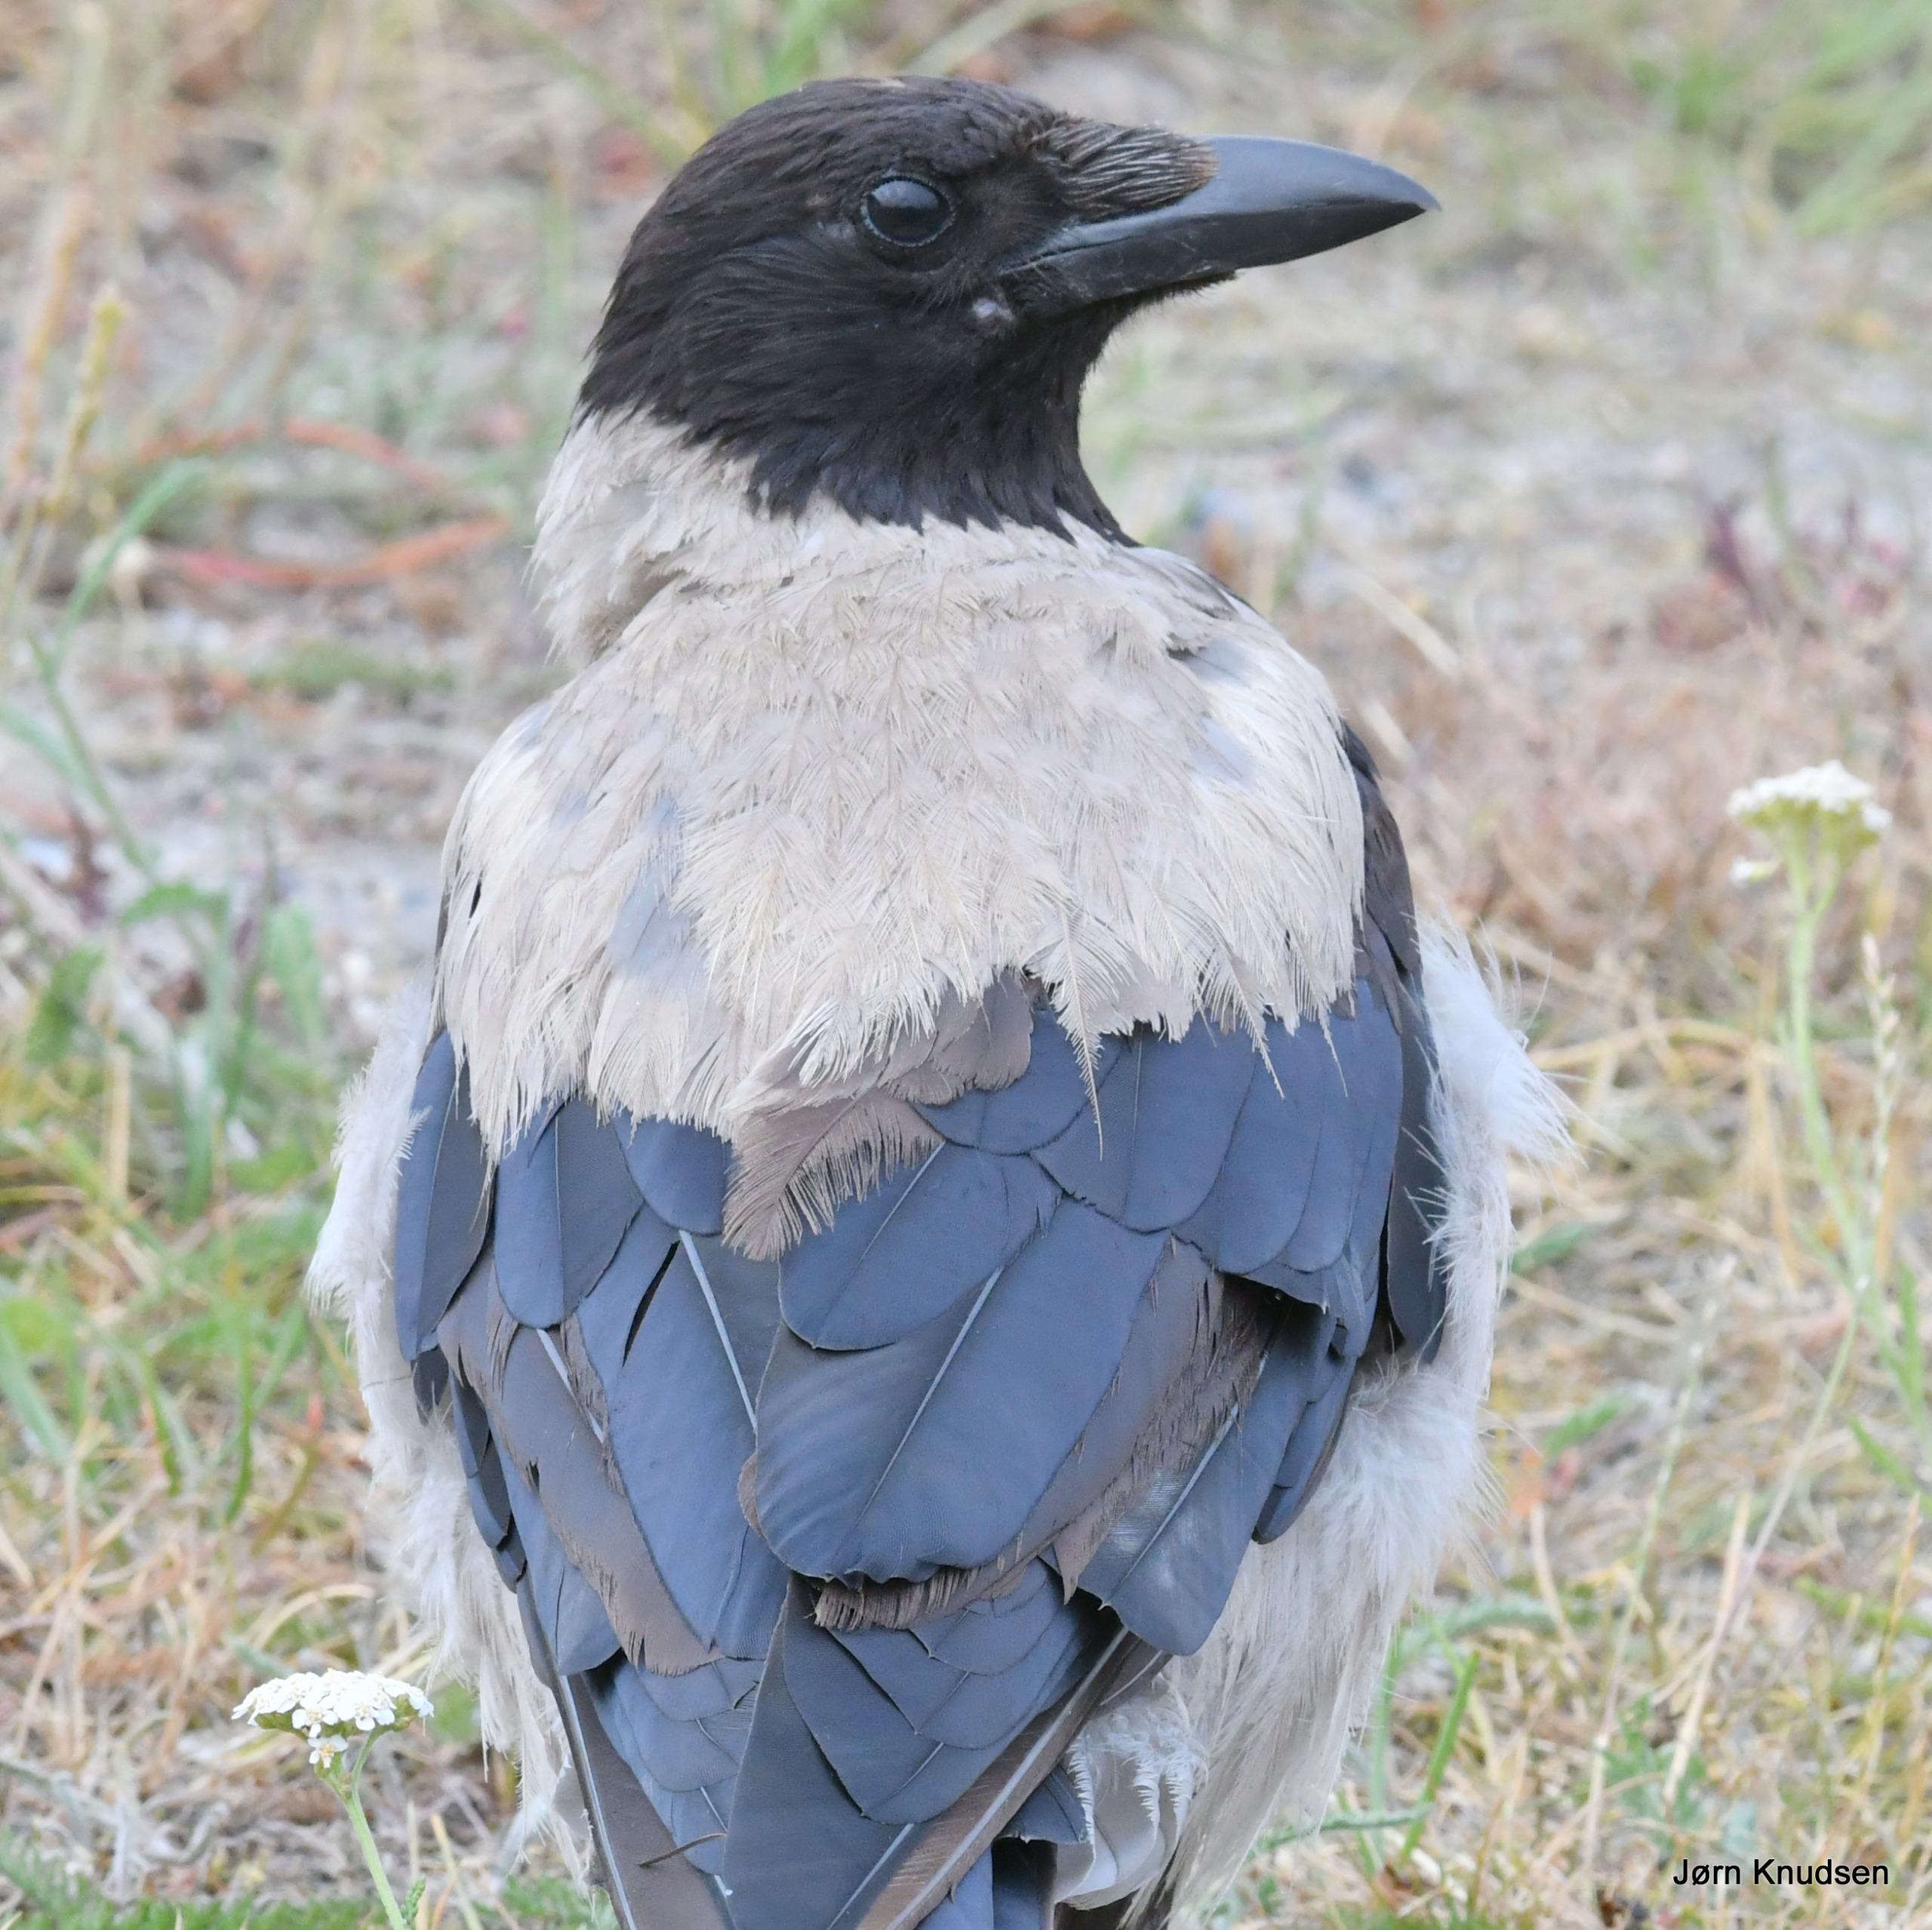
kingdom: Animalia
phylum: Chordata
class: Aves
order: Passeriformes
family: Corvidae
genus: Corvus
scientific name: Corvus cornix
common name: Gråkrage
